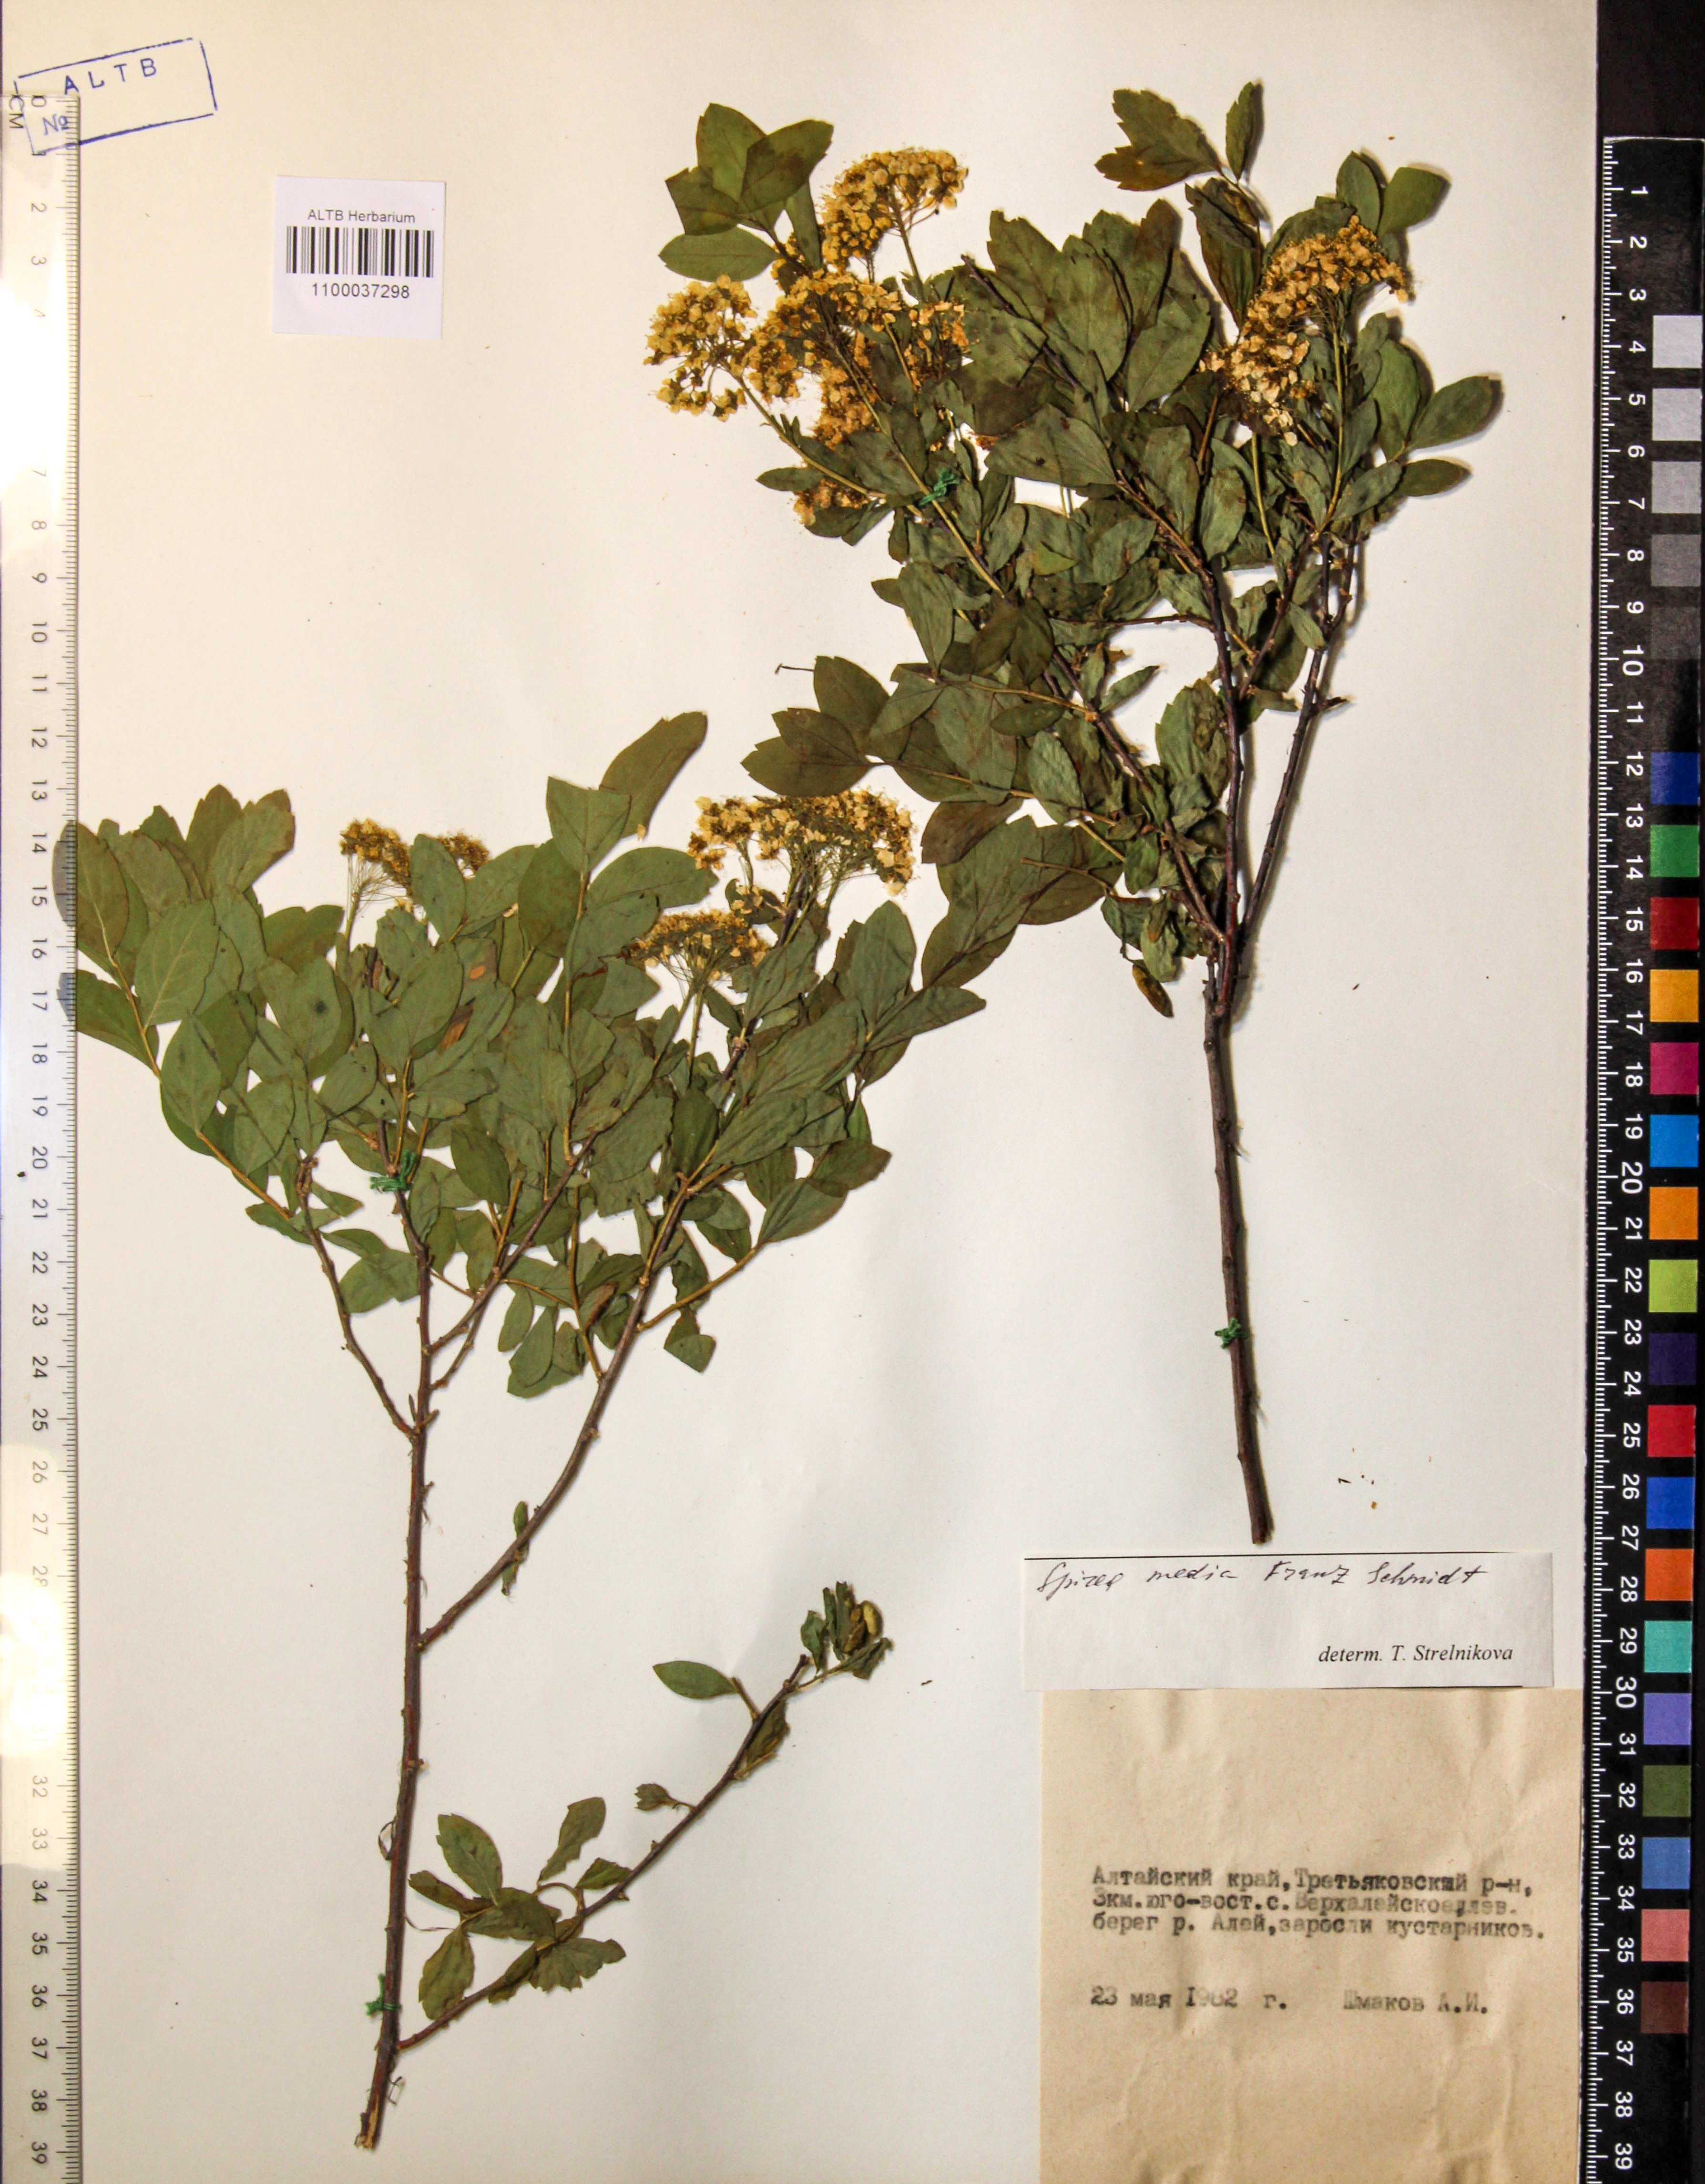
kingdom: Plantae
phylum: Tracheophyta
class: Magnoliopsida
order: Rosales
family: Rosaceae
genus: Spiraea
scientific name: Spiraea media
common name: Russian spiraea
